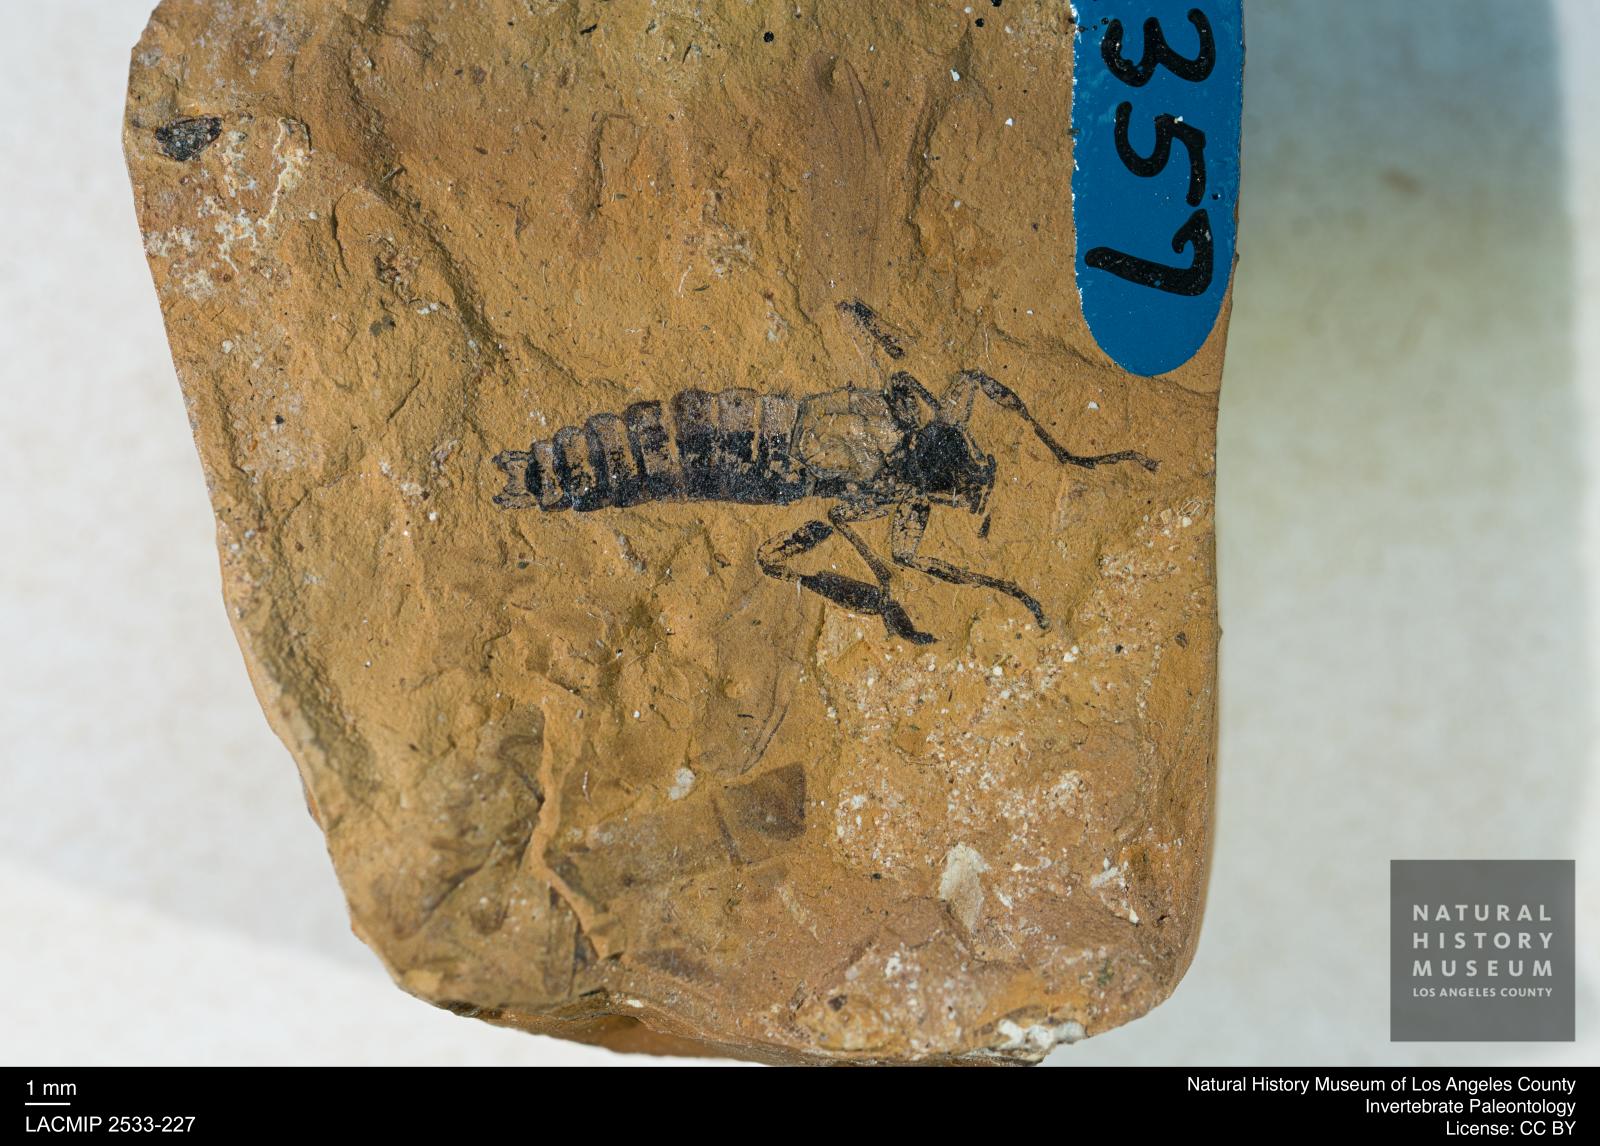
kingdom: Animalia
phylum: Arthropoda
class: Insecta
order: Diptera
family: Bibionidae
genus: Bibio
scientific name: Bibio
